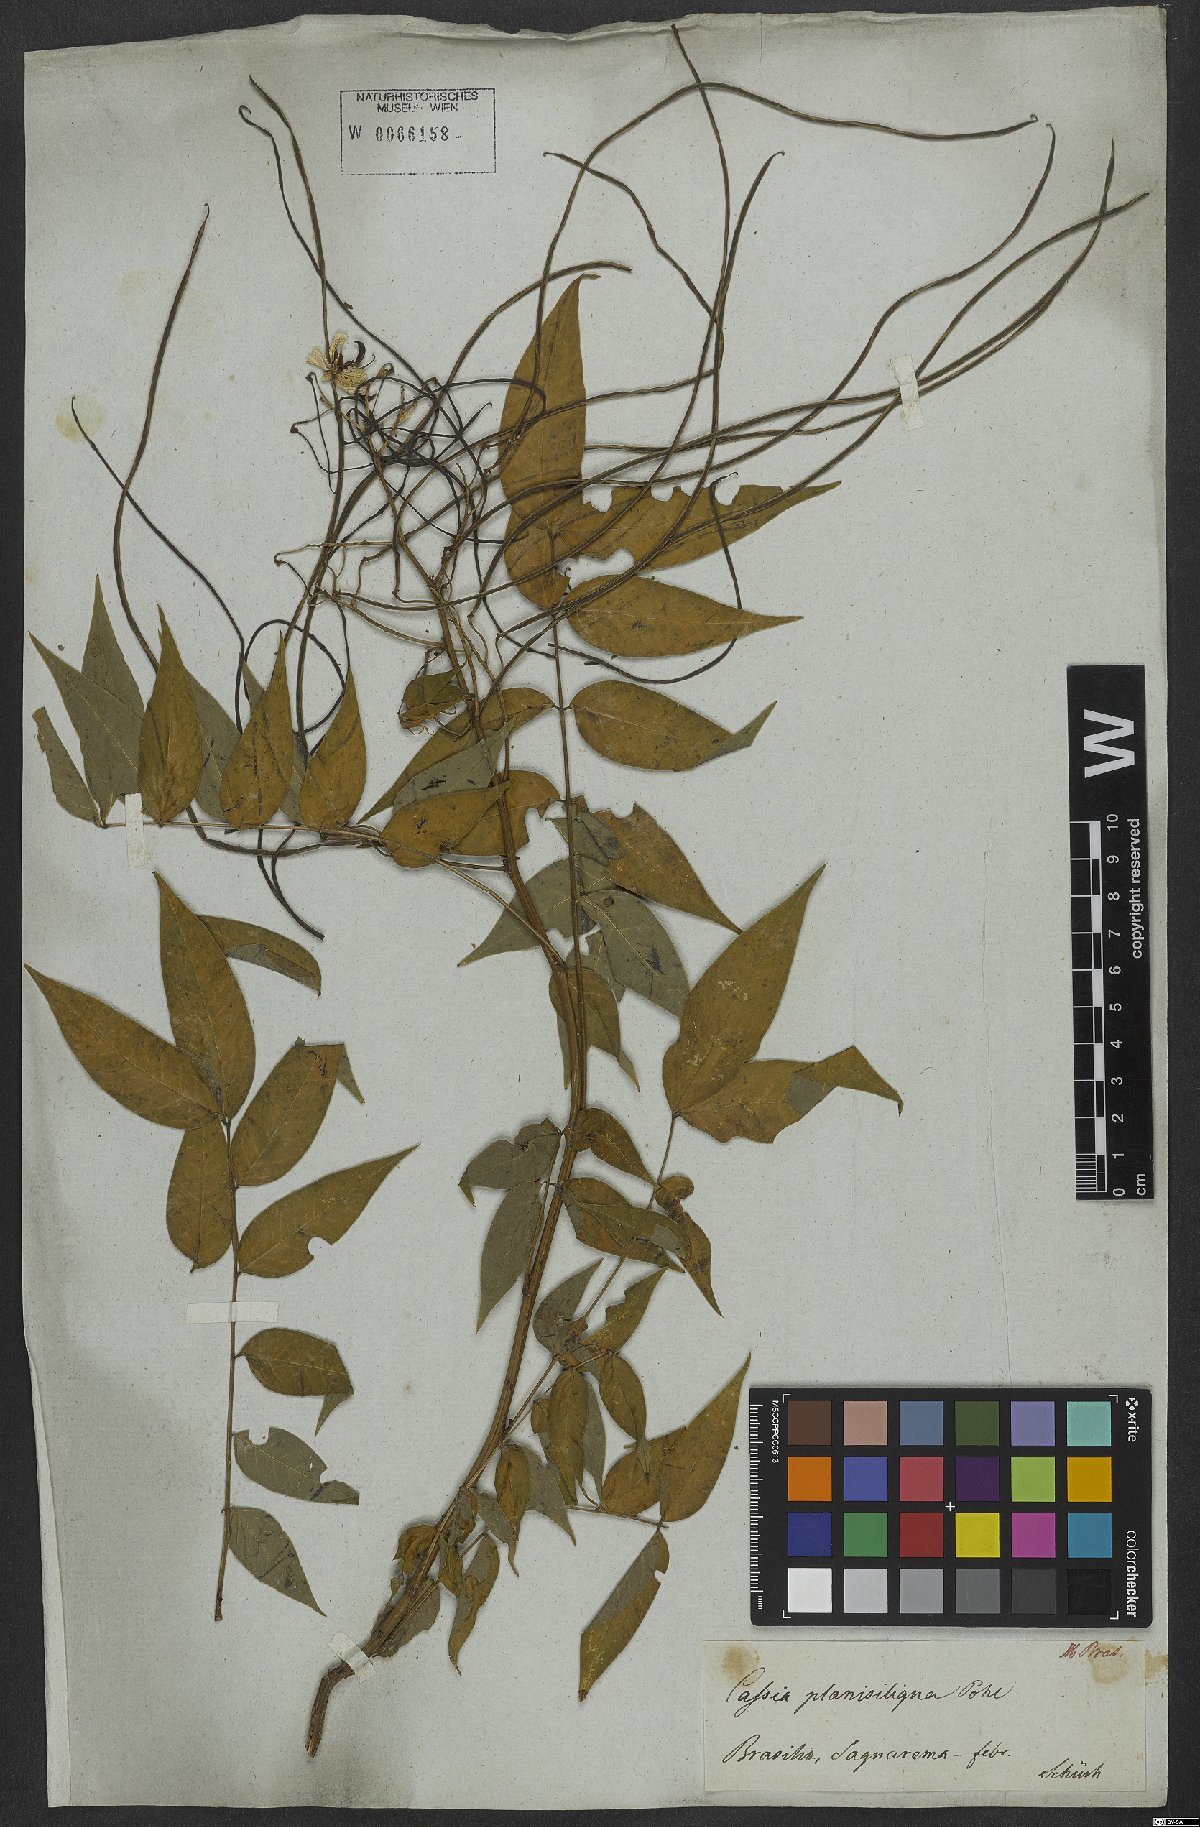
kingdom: Plantae
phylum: Tracheophyta
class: Magnoliopsida
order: Fabales
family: Fabaceae
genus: Senna
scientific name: Senna occidentalis
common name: Septicweed
